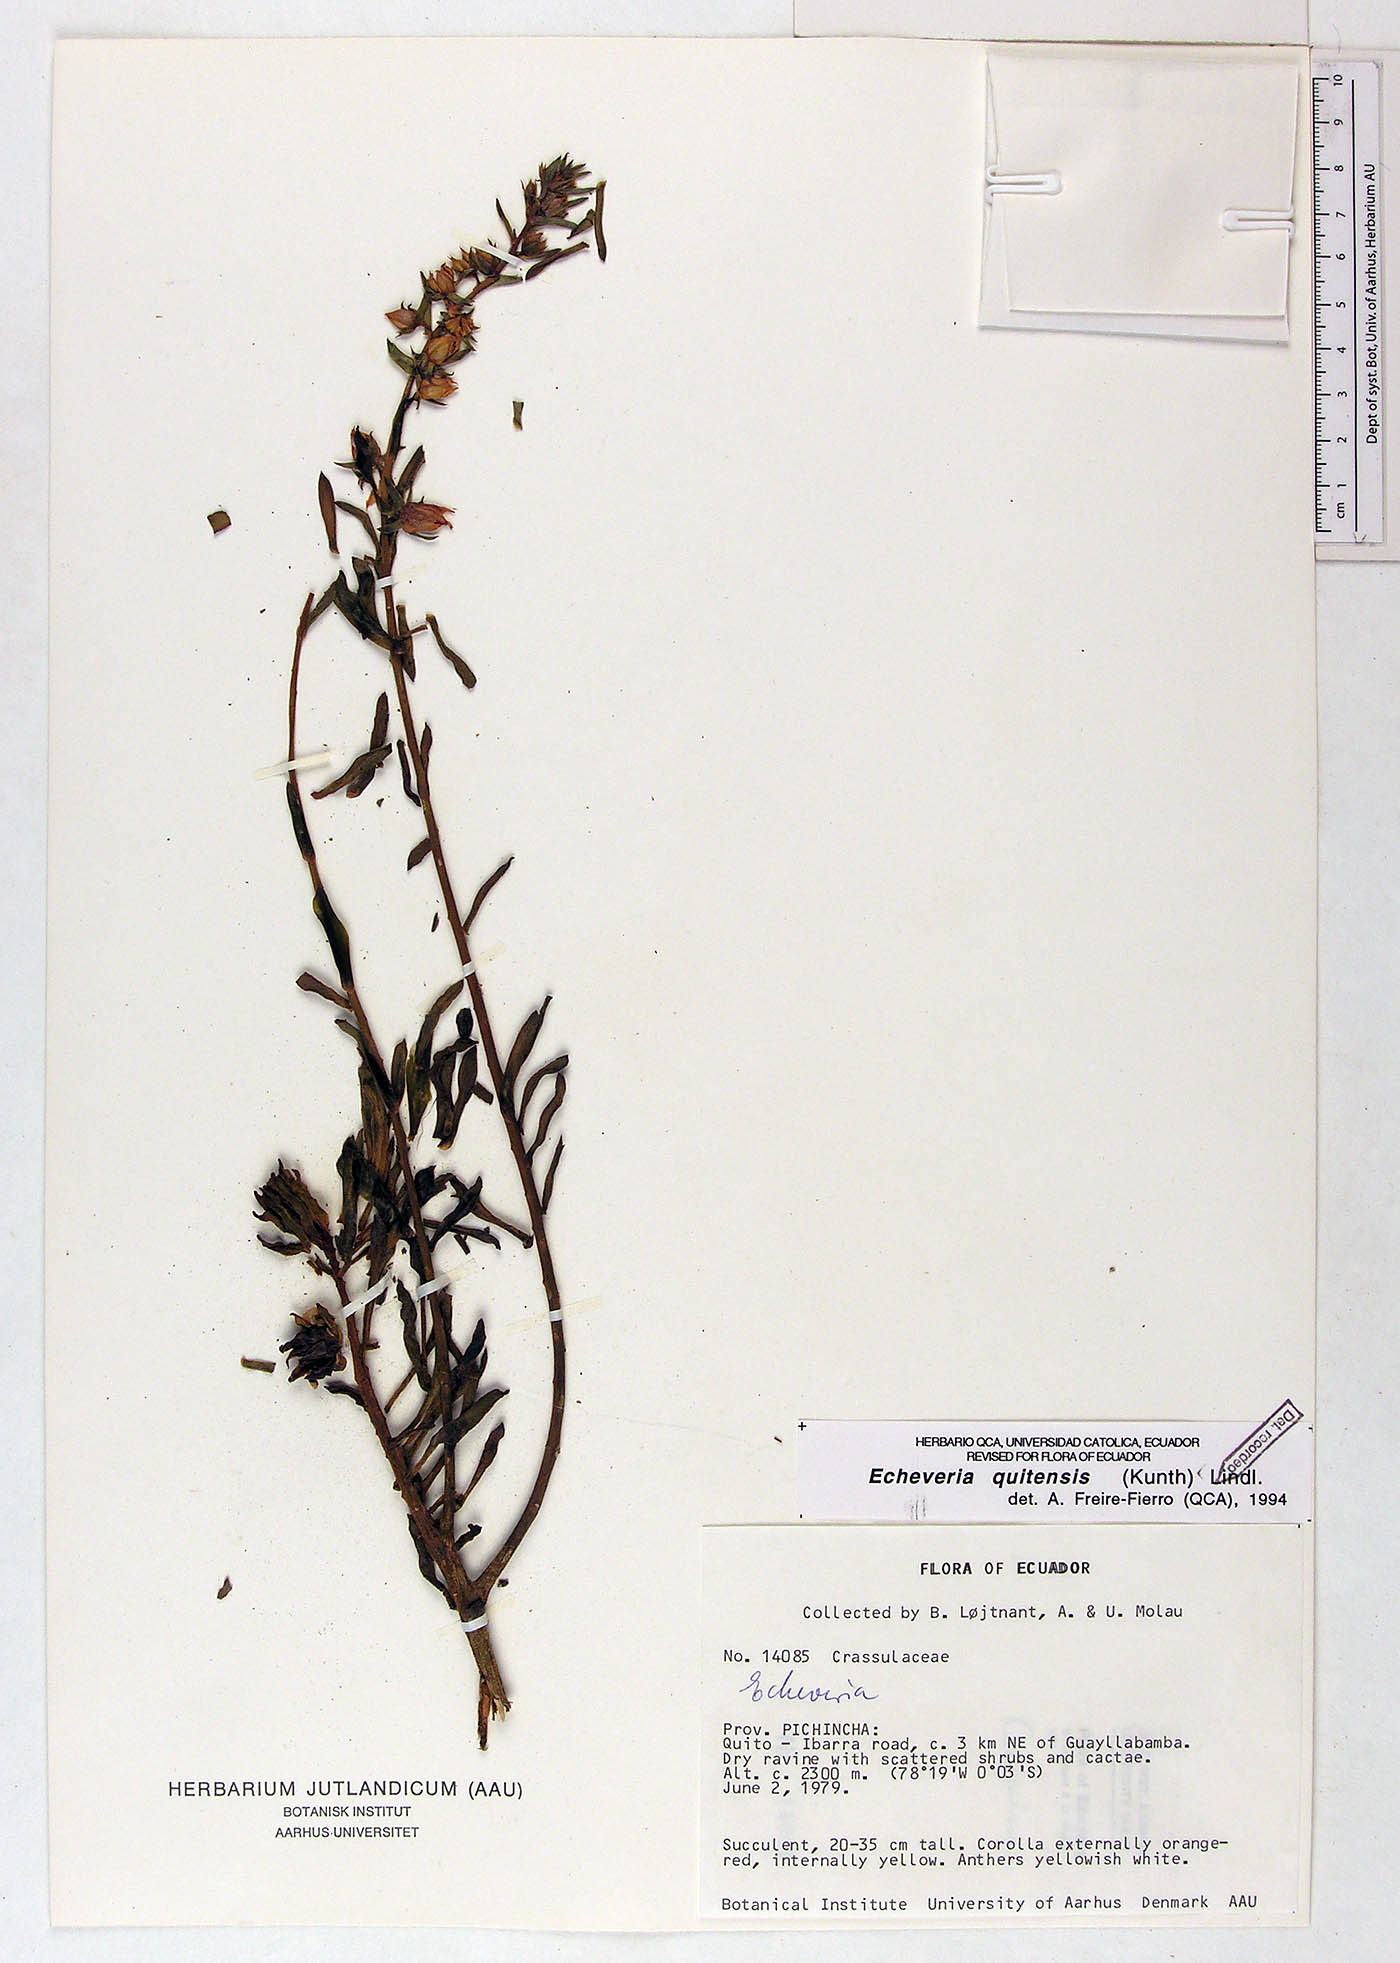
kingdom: Plantae
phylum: Tracheophyta
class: Magnoliopsida
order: Saxifragales
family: Crassulaceae
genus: Echeveria
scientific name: Echeveria quitensis
